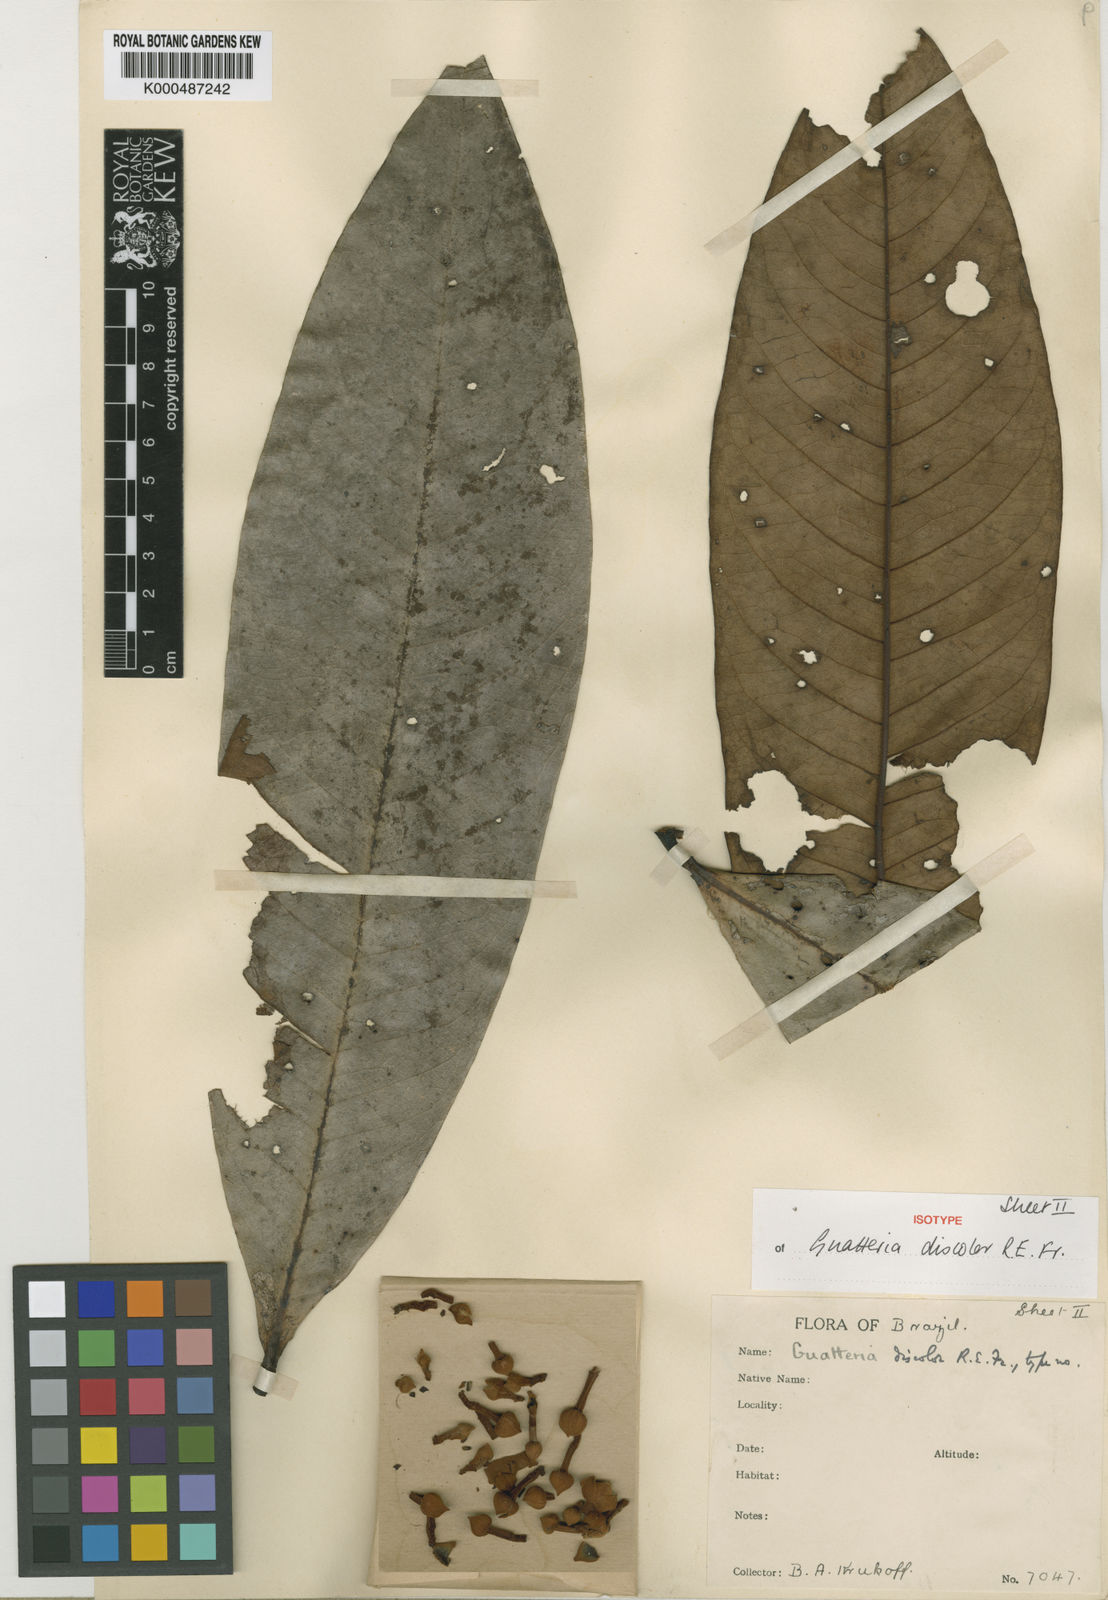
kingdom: Plantae
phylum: Tracheophyta
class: Magnoliopsida
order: Magnoliales
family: Annonaceae
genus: Guatteria
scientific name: Guatteria discolor
